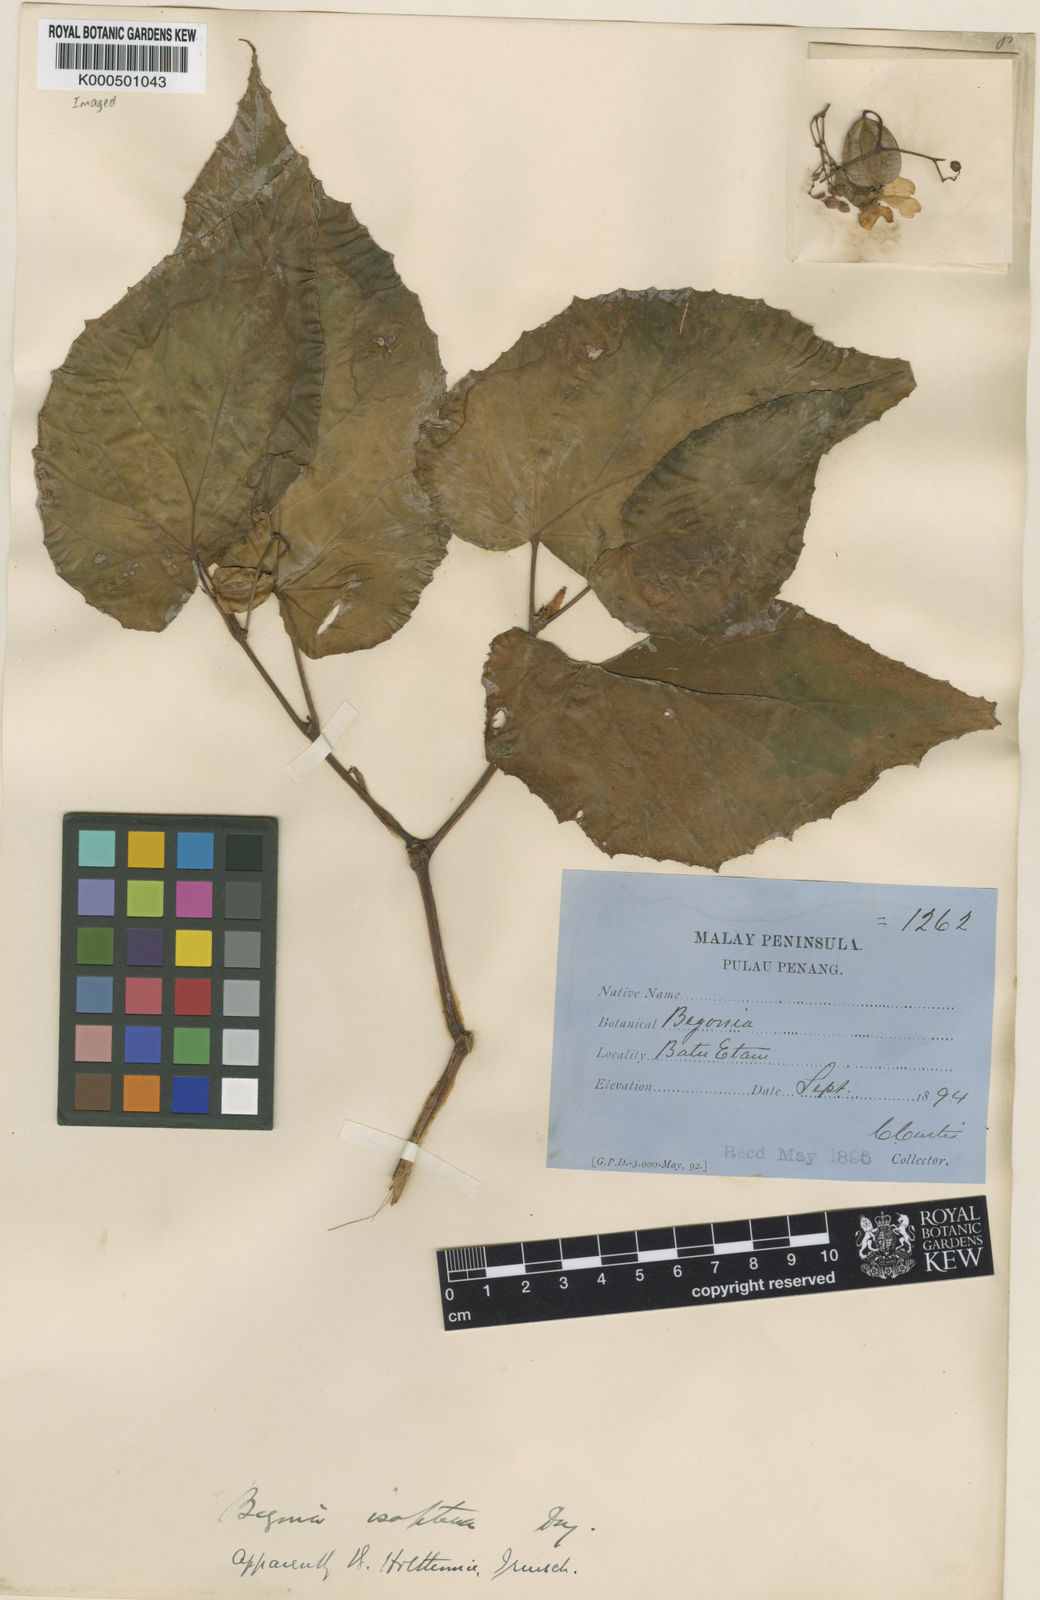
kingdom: Plantae
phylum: Tracheophyta
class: Magnoliopsida
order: Cucurbitales
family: Begoniaceae
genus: Begonia
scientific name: Begonia holttumii
